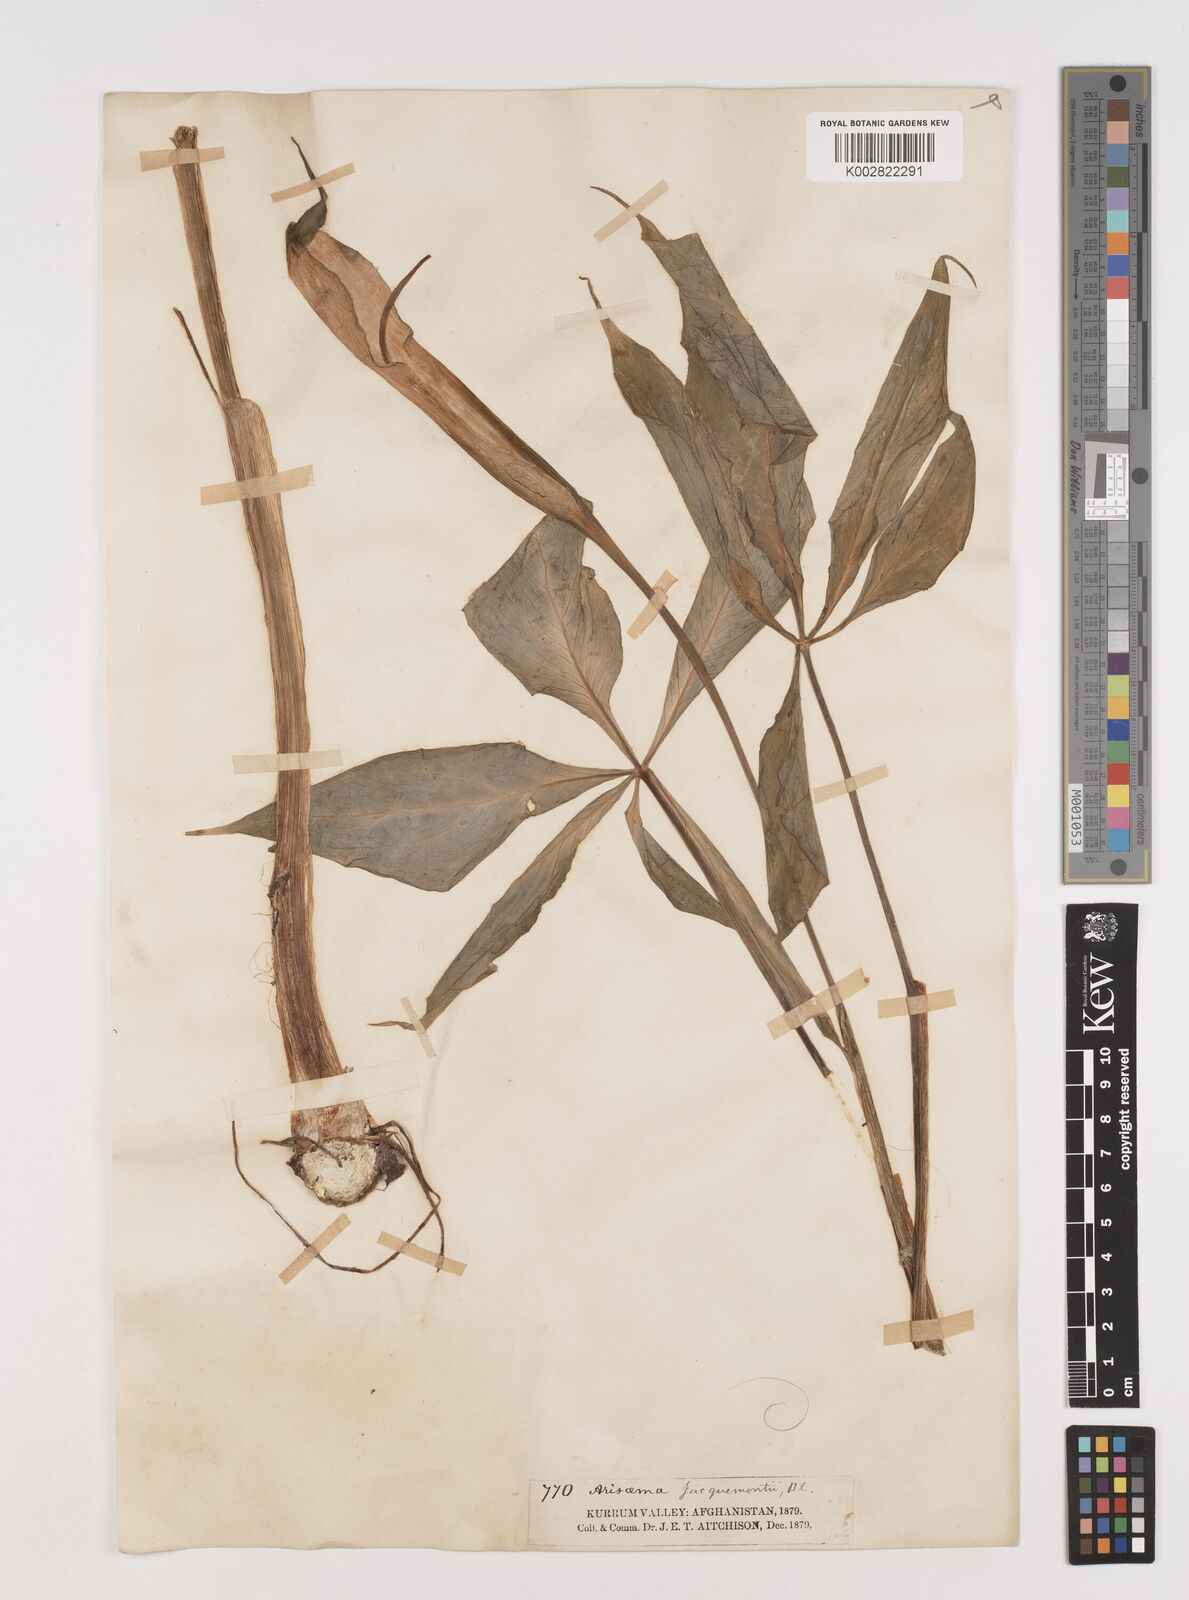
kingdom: Plantae
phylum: Tracheophyta
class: Liliopsida
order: Alismatales
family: Araceae
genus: Arisaema
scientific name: Arisaema jacquemontii
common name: Jacquemont's cobra-lily
